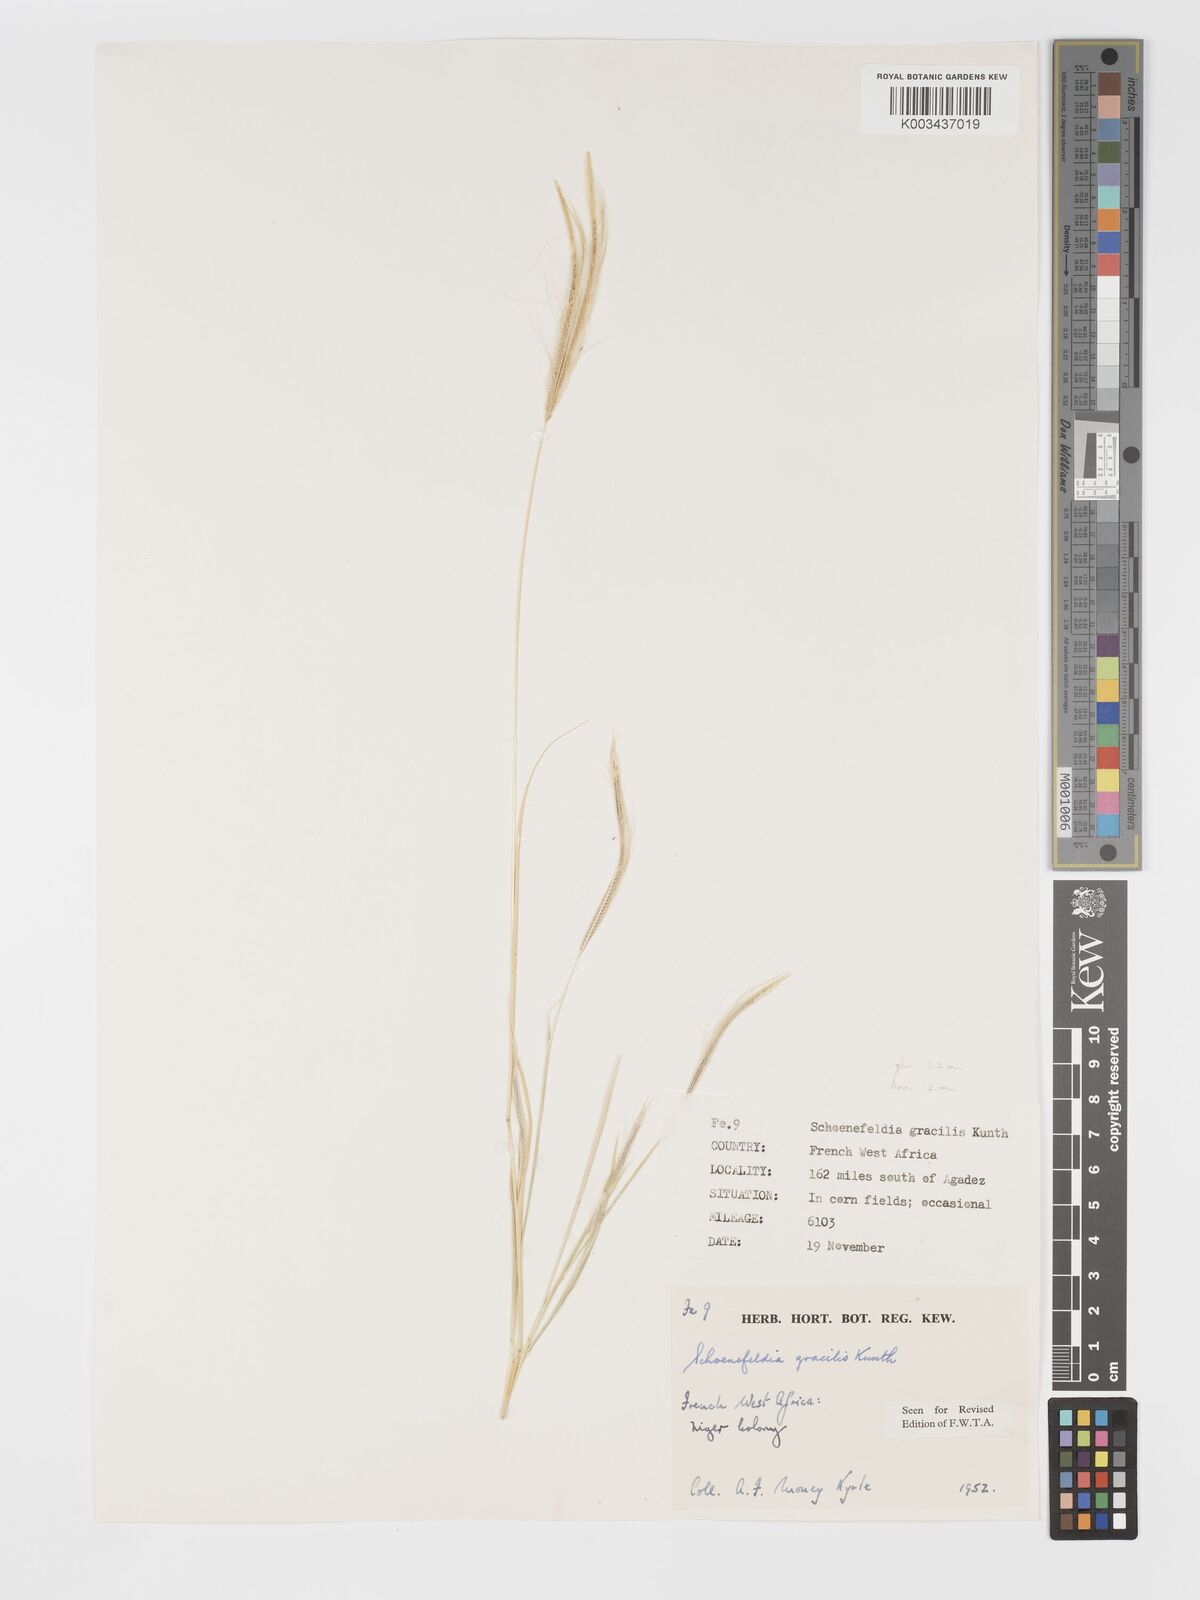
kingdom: Plantae
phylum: Tracheophyta
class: Liliopsida
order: Poales
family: Poaceae
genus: Schoenefeldia
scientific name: Schoenefeldia gracilis
